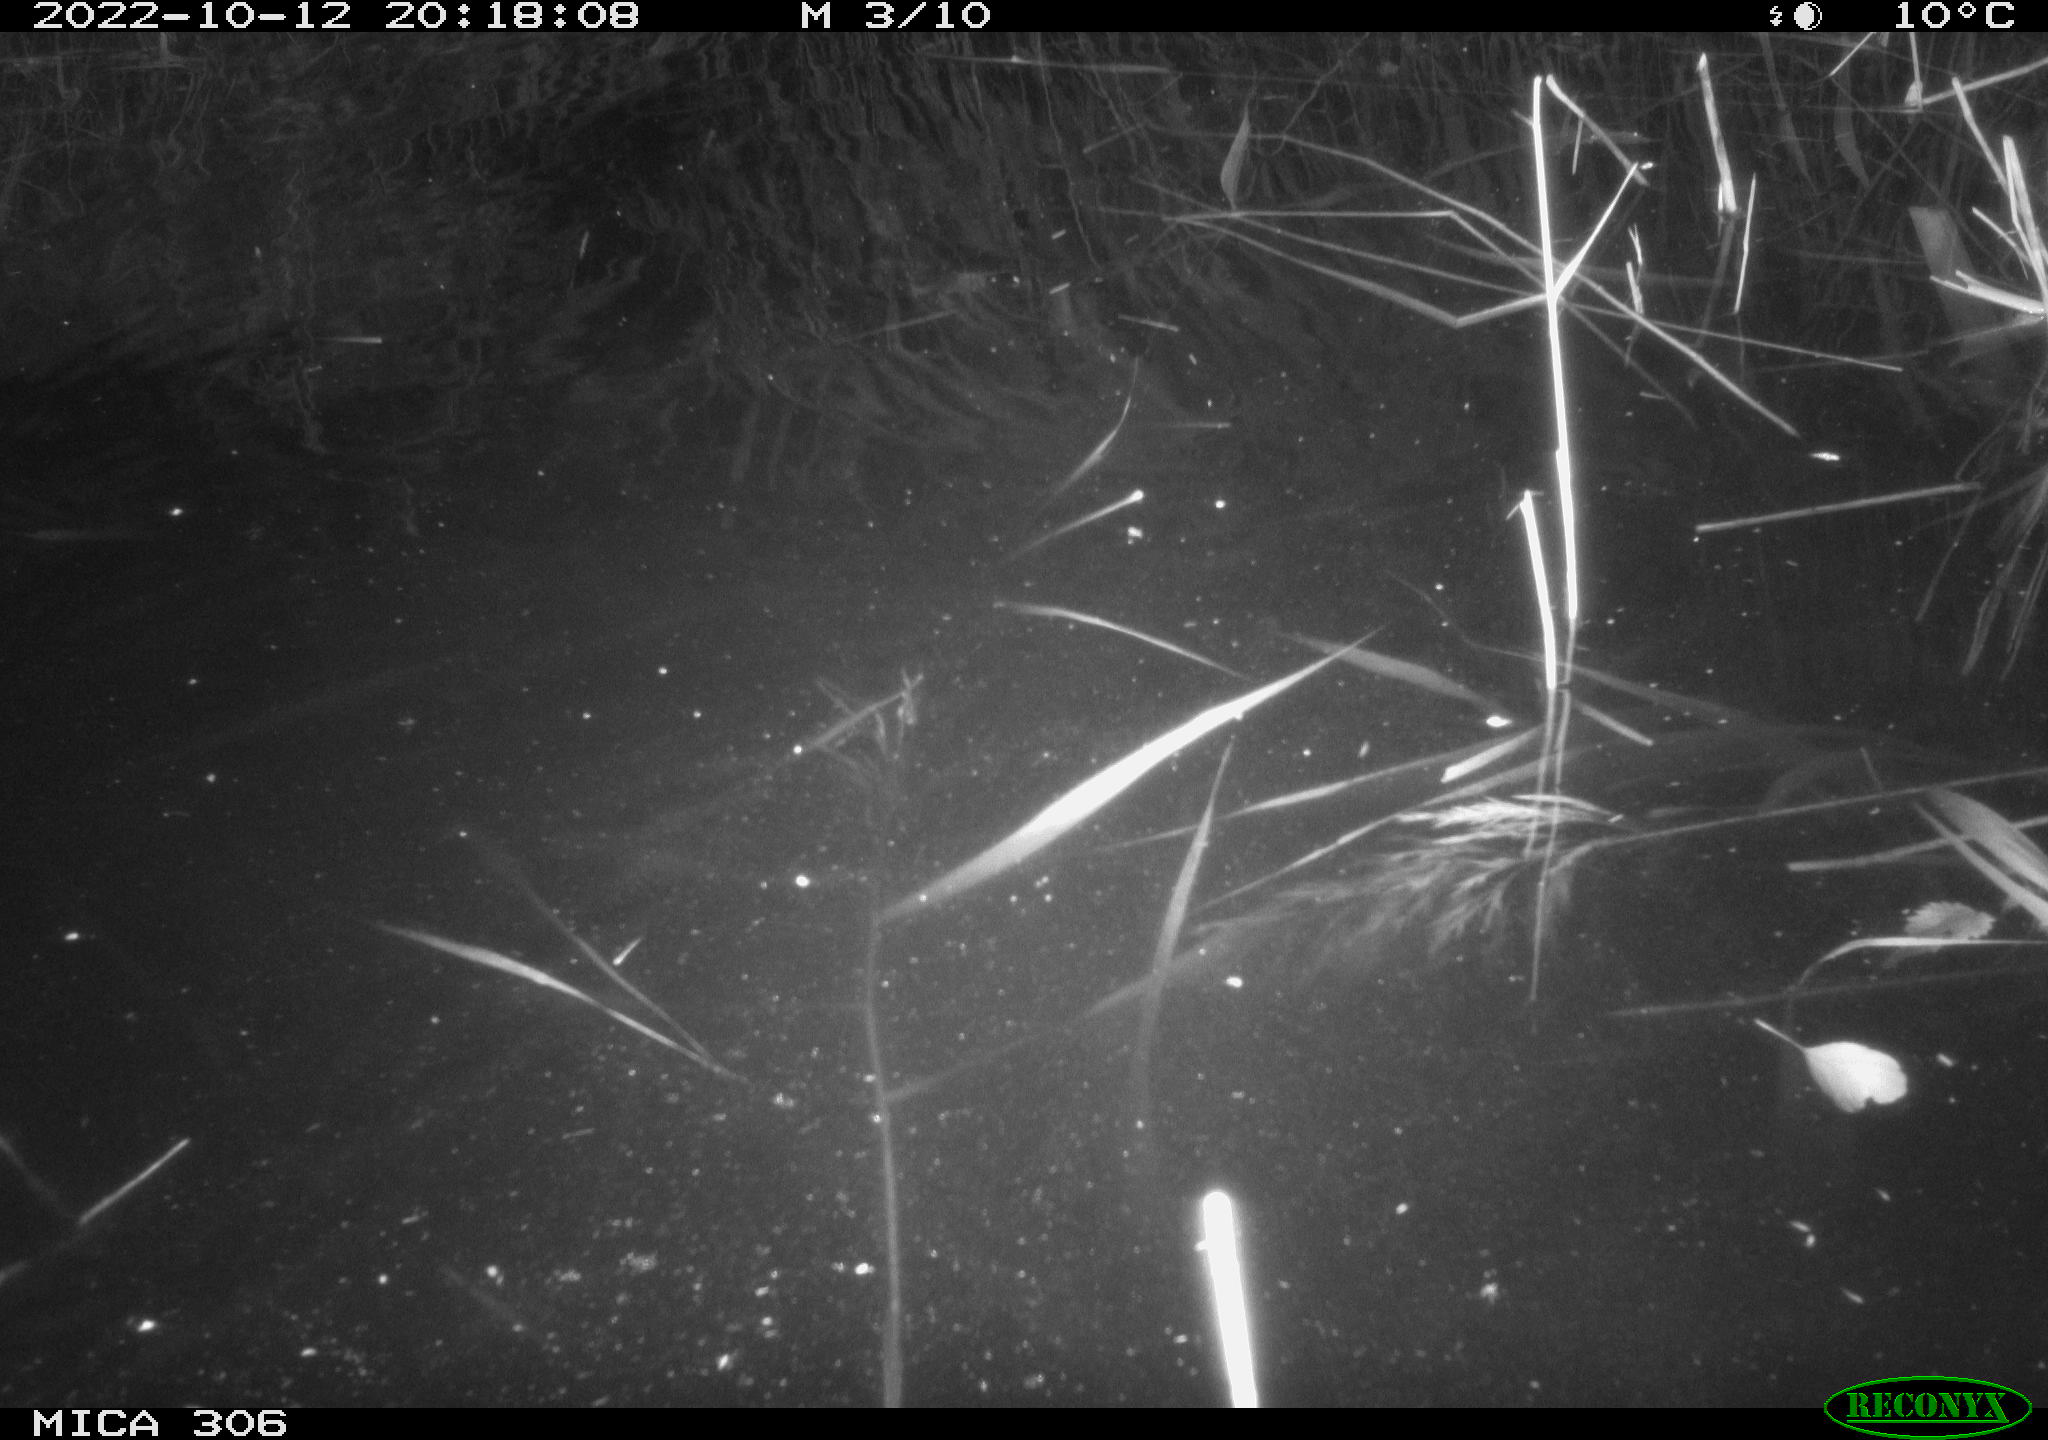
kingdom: Animalia
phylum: Chordata
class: Mammalia
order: Rodentia
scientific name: Rodentia
